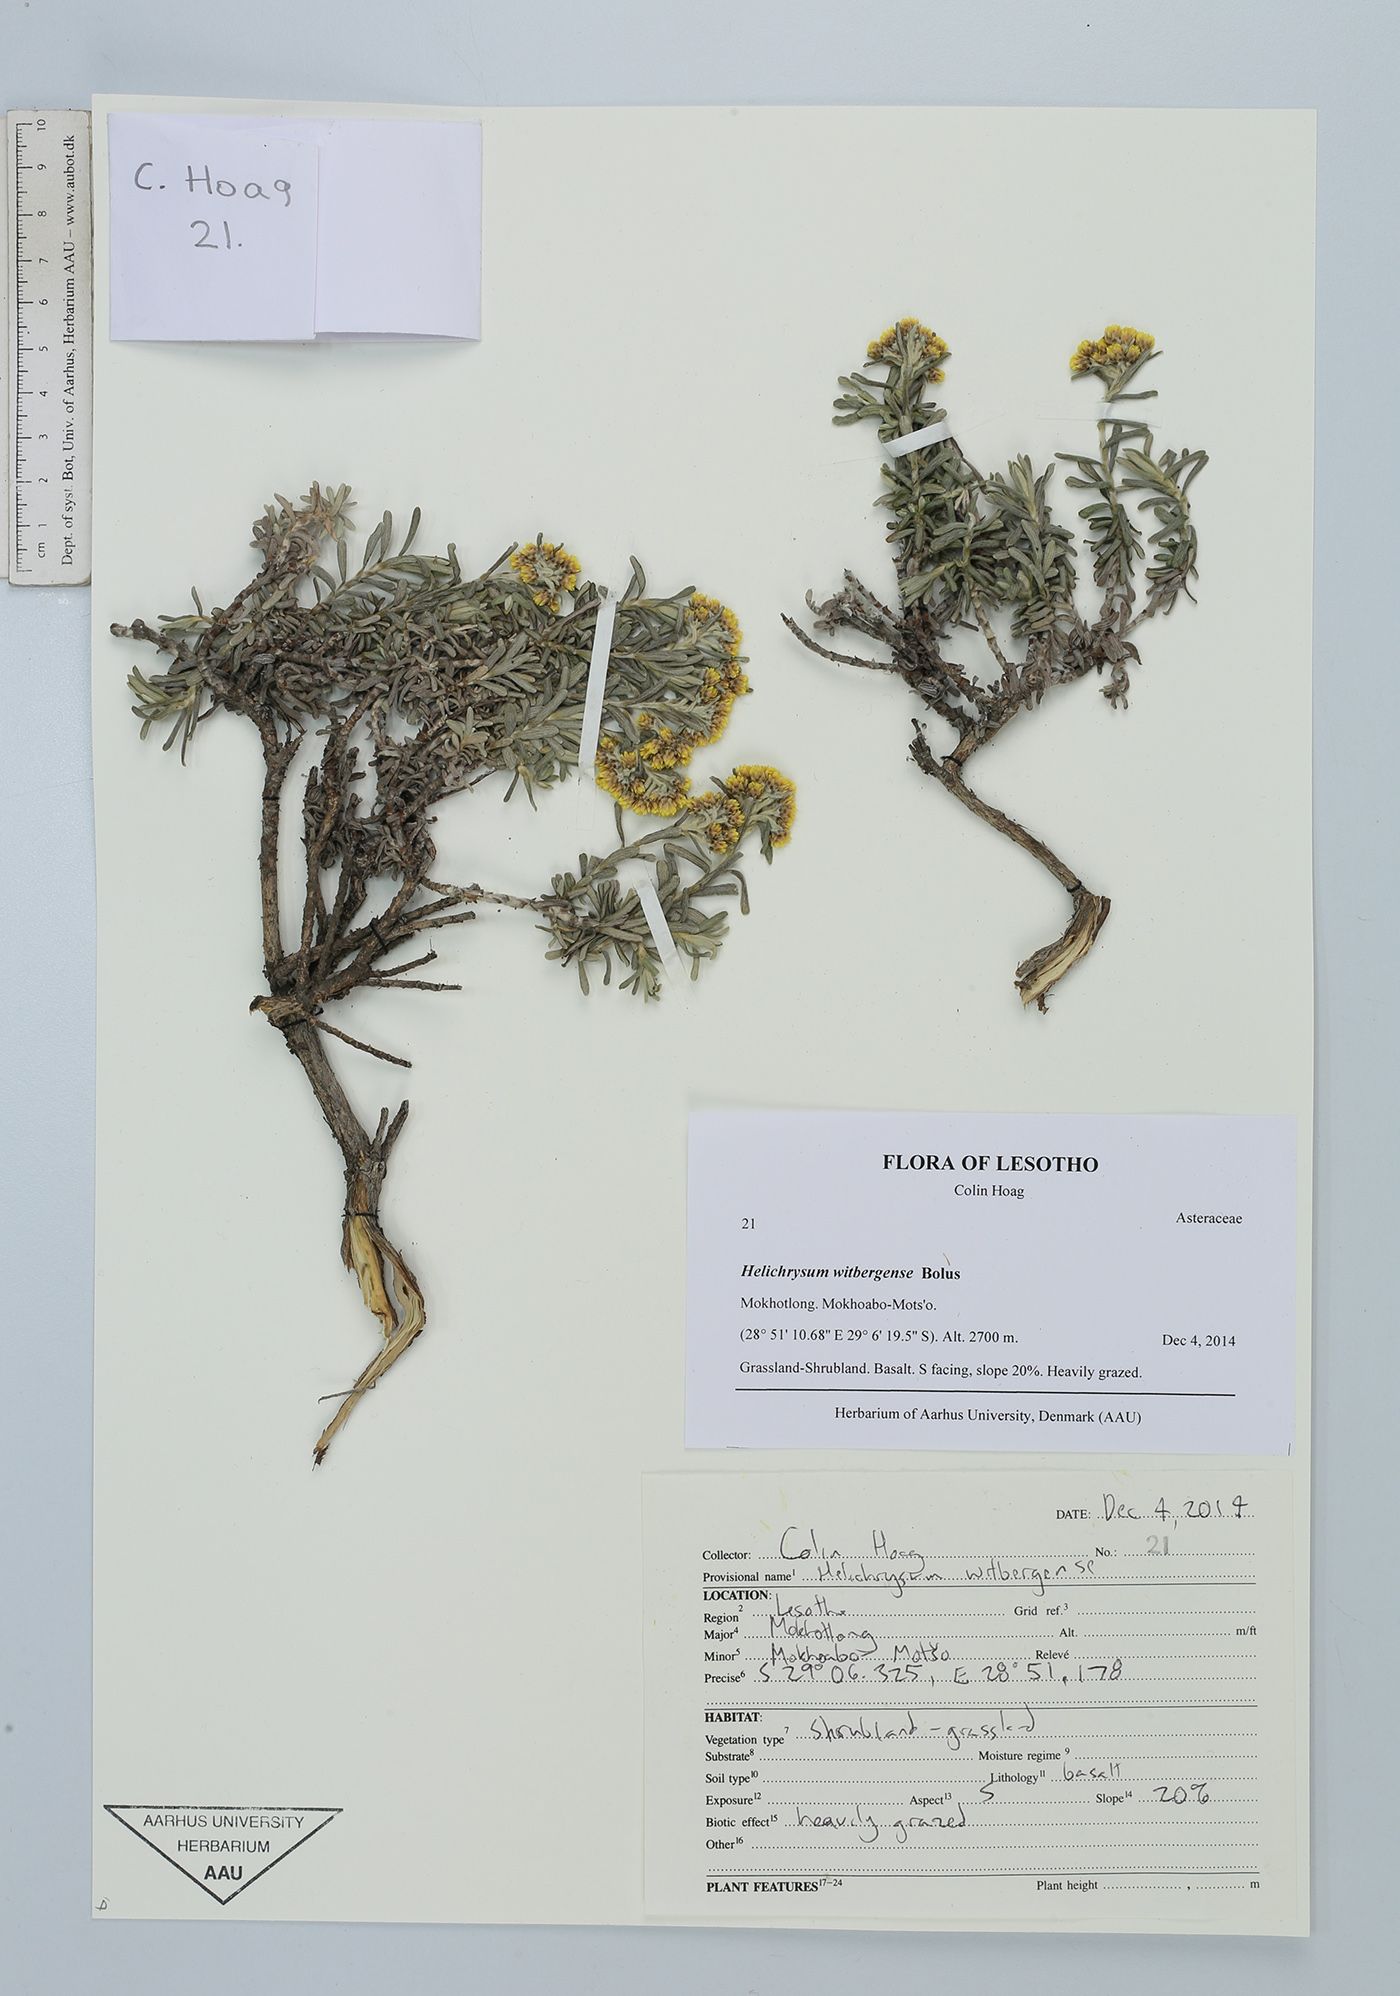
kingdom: Plantae
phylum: Tracheophyta
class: Magnoliopsida
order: Asterales
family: Asteraceae
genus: Helichrysum
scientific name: Helichrysum witbergense
